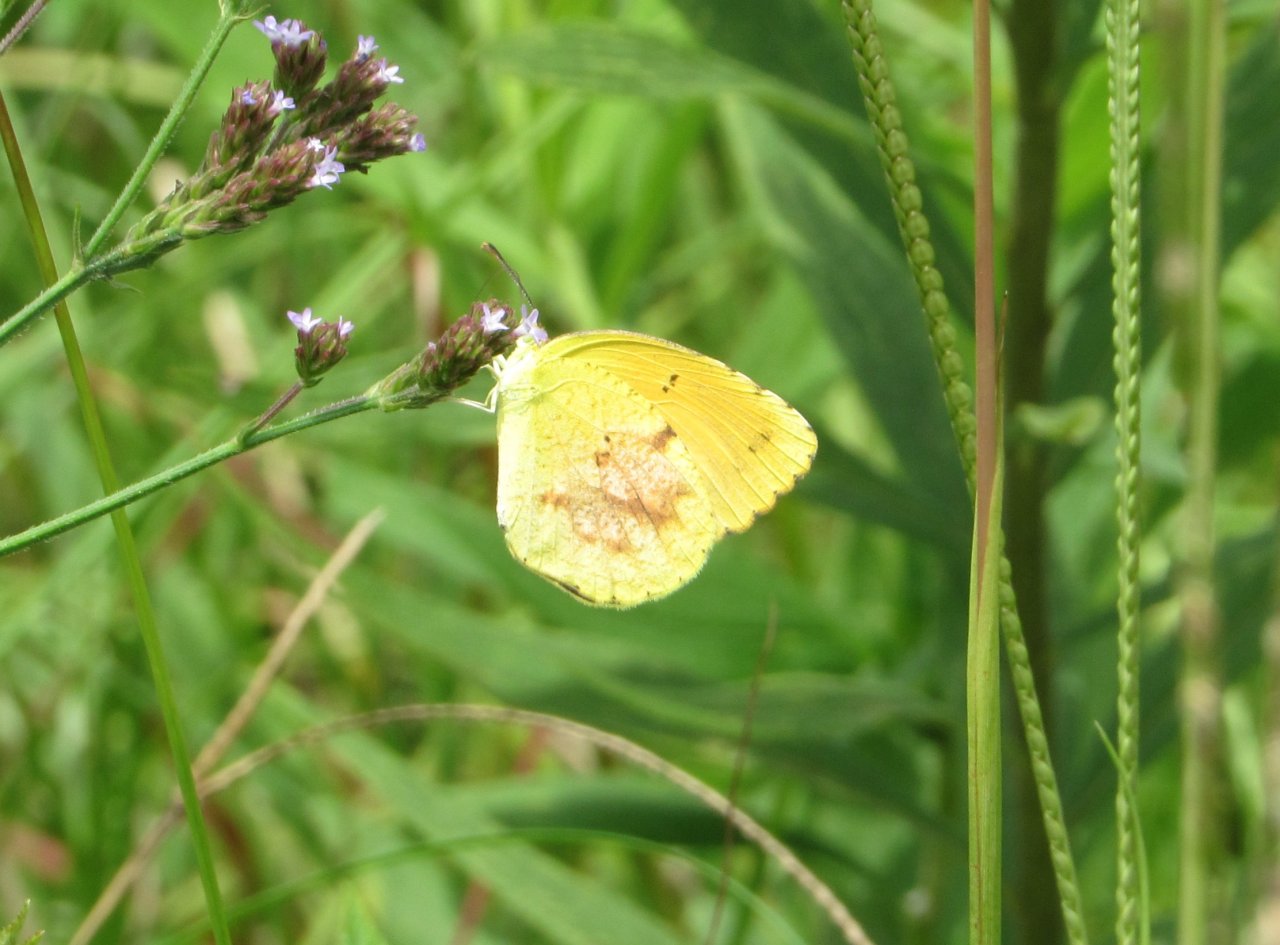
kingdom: Animalia
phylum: Arthropoda
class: Insecta
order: Lepidoptera
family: Pieridae
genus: Abaeis
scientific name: Abaeis nicippe
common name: Sleepy Orange
